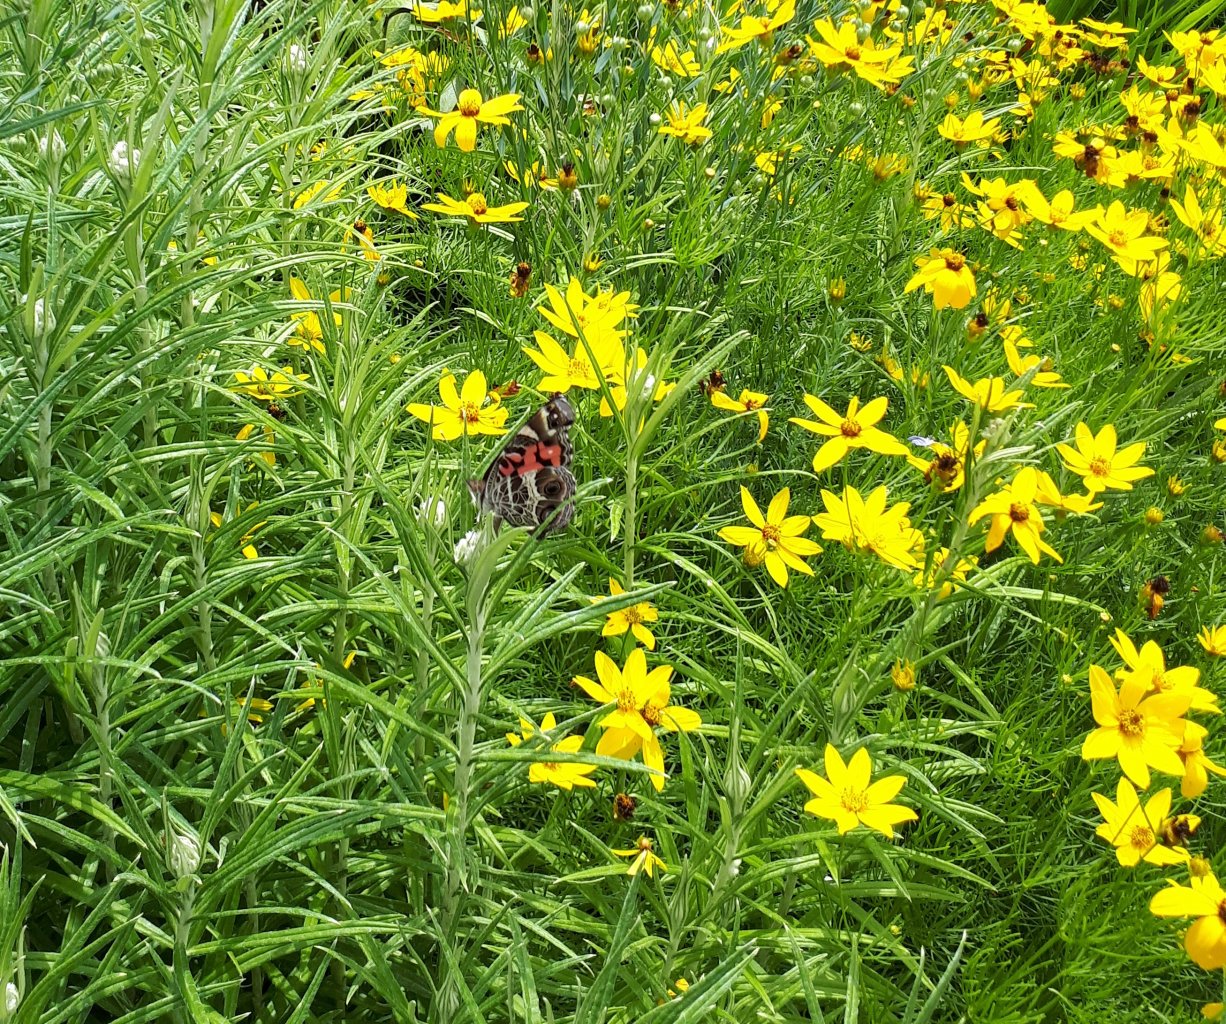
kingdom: Animalia
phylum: Arthropoda
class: Insecta
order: Lepidoptera
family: Nymphalidae
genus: Vanessa
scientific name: Vanessa virginiensis
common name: American Lady
